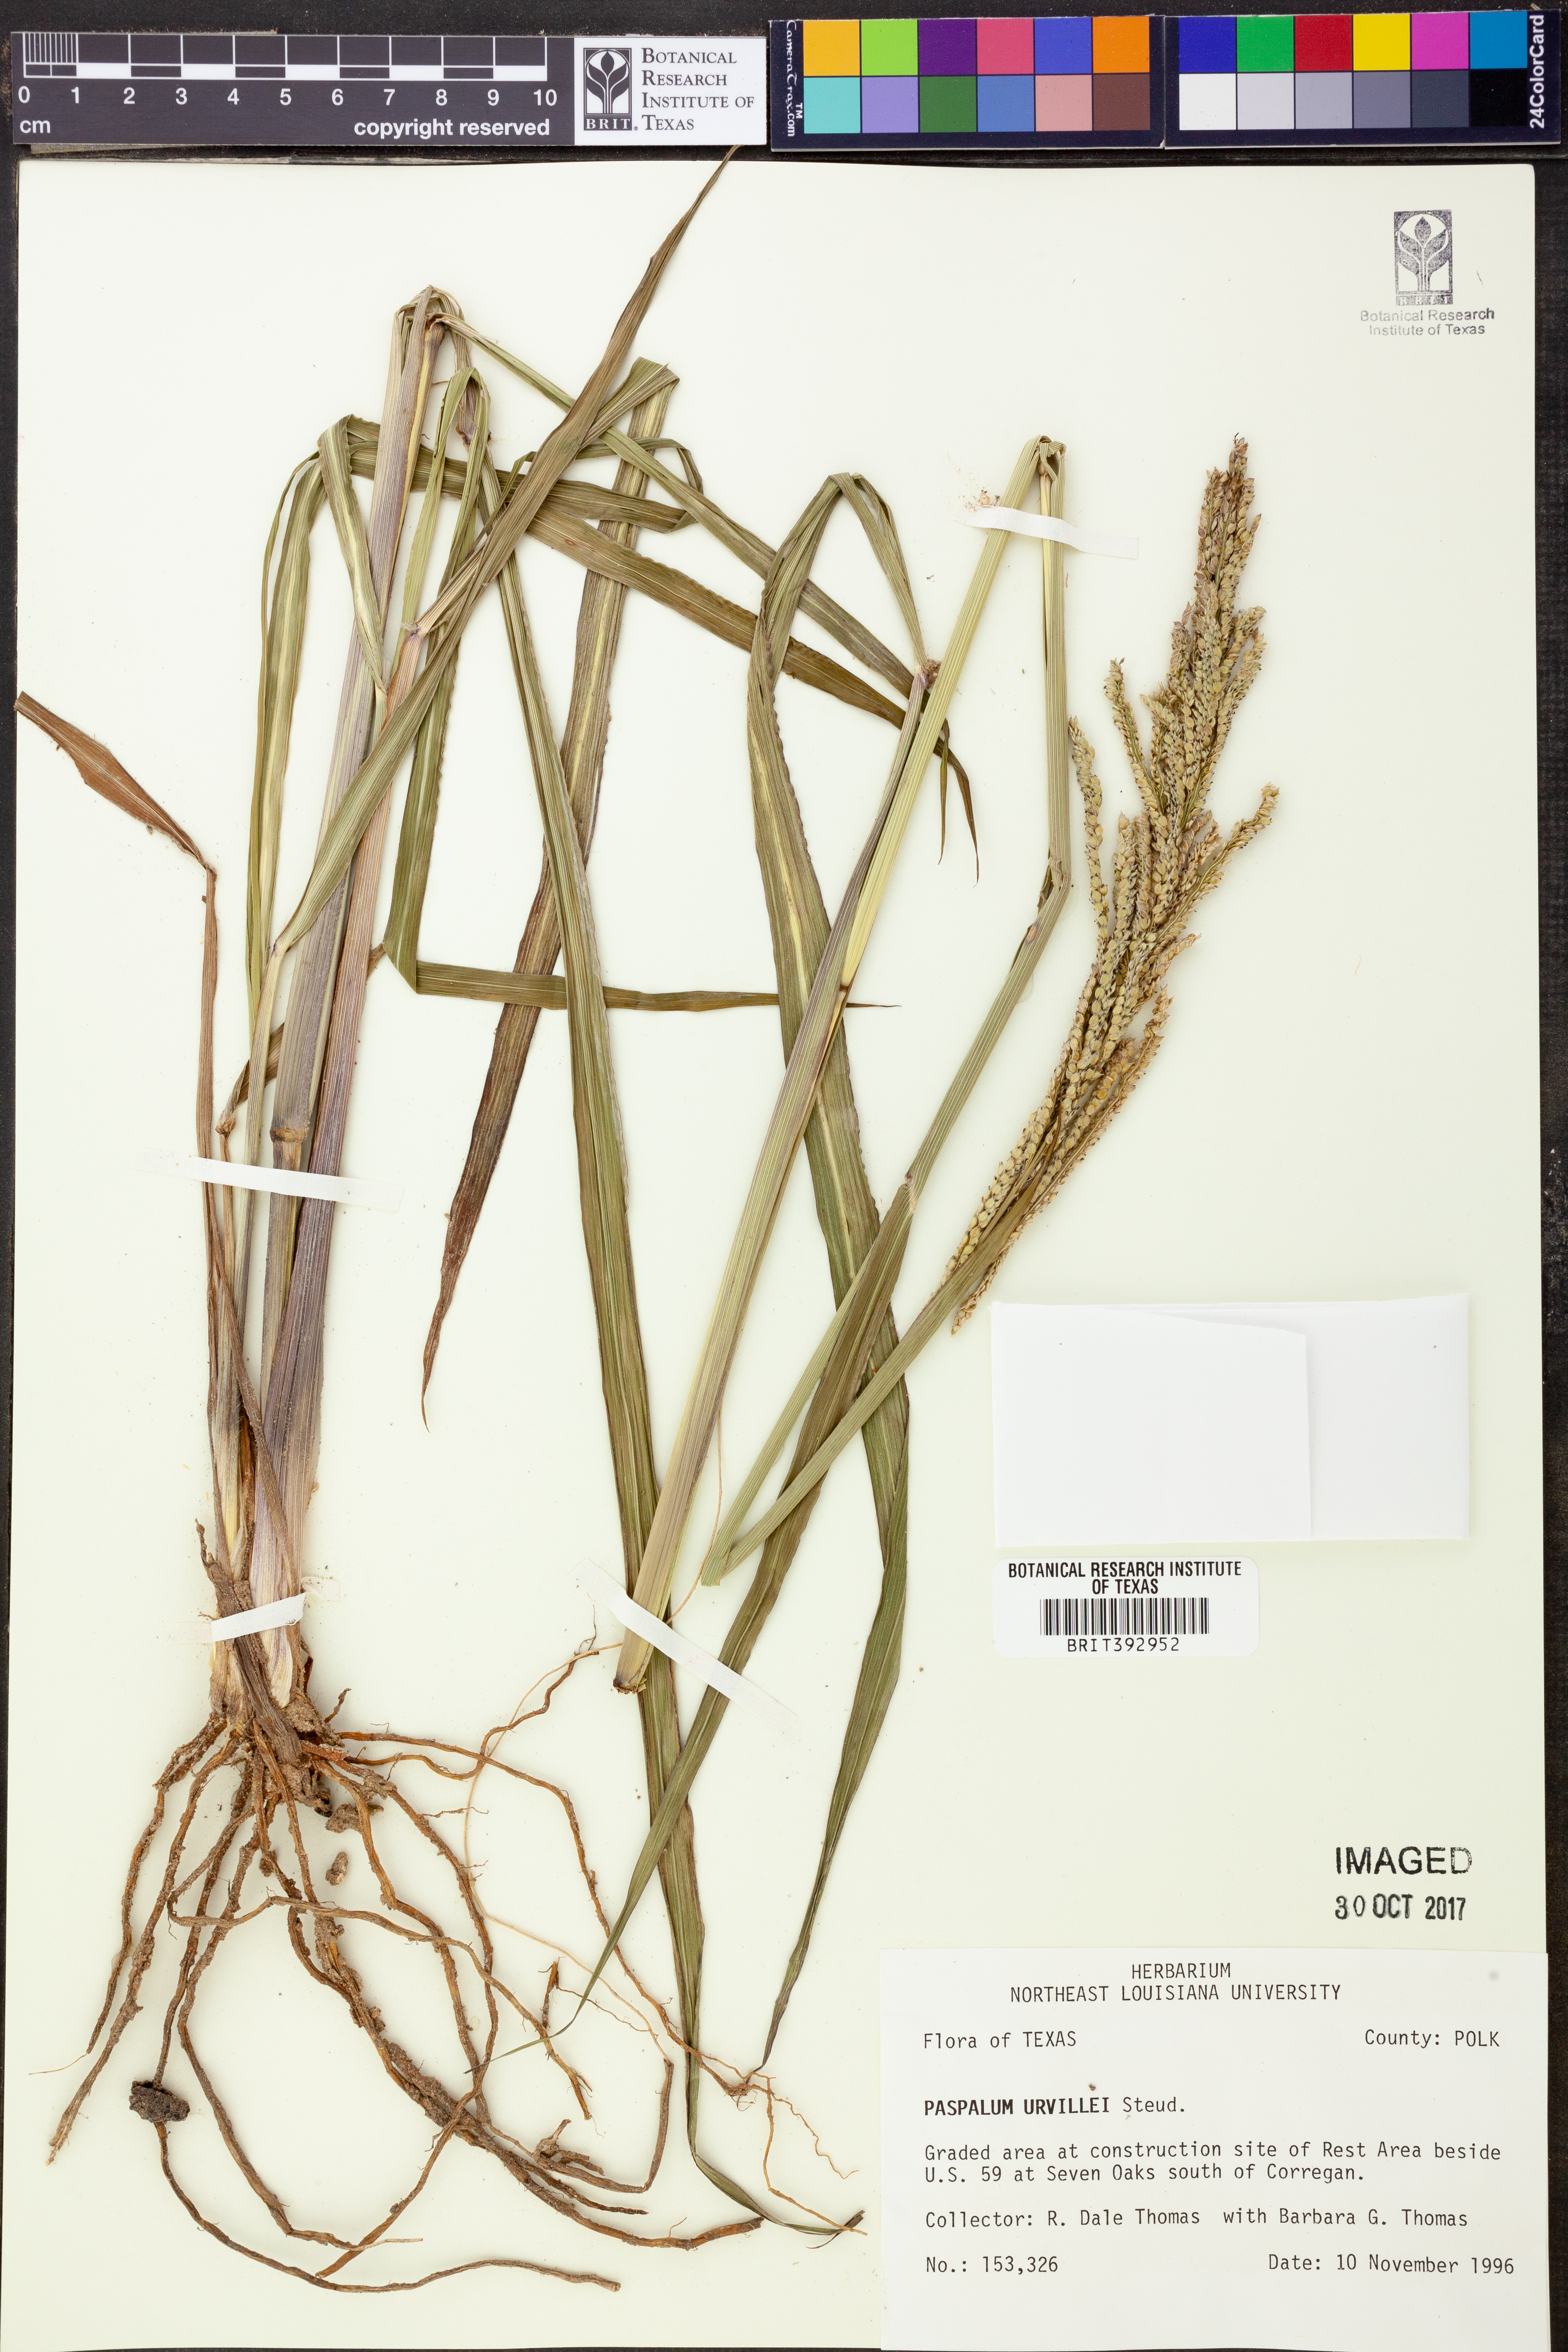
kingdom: Plantae
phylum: Tracheophyta
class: Liliopsida
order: Poales
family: Poaceae
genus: Paspalum
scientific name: Paspalum urvillei
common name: Vasey's grass
